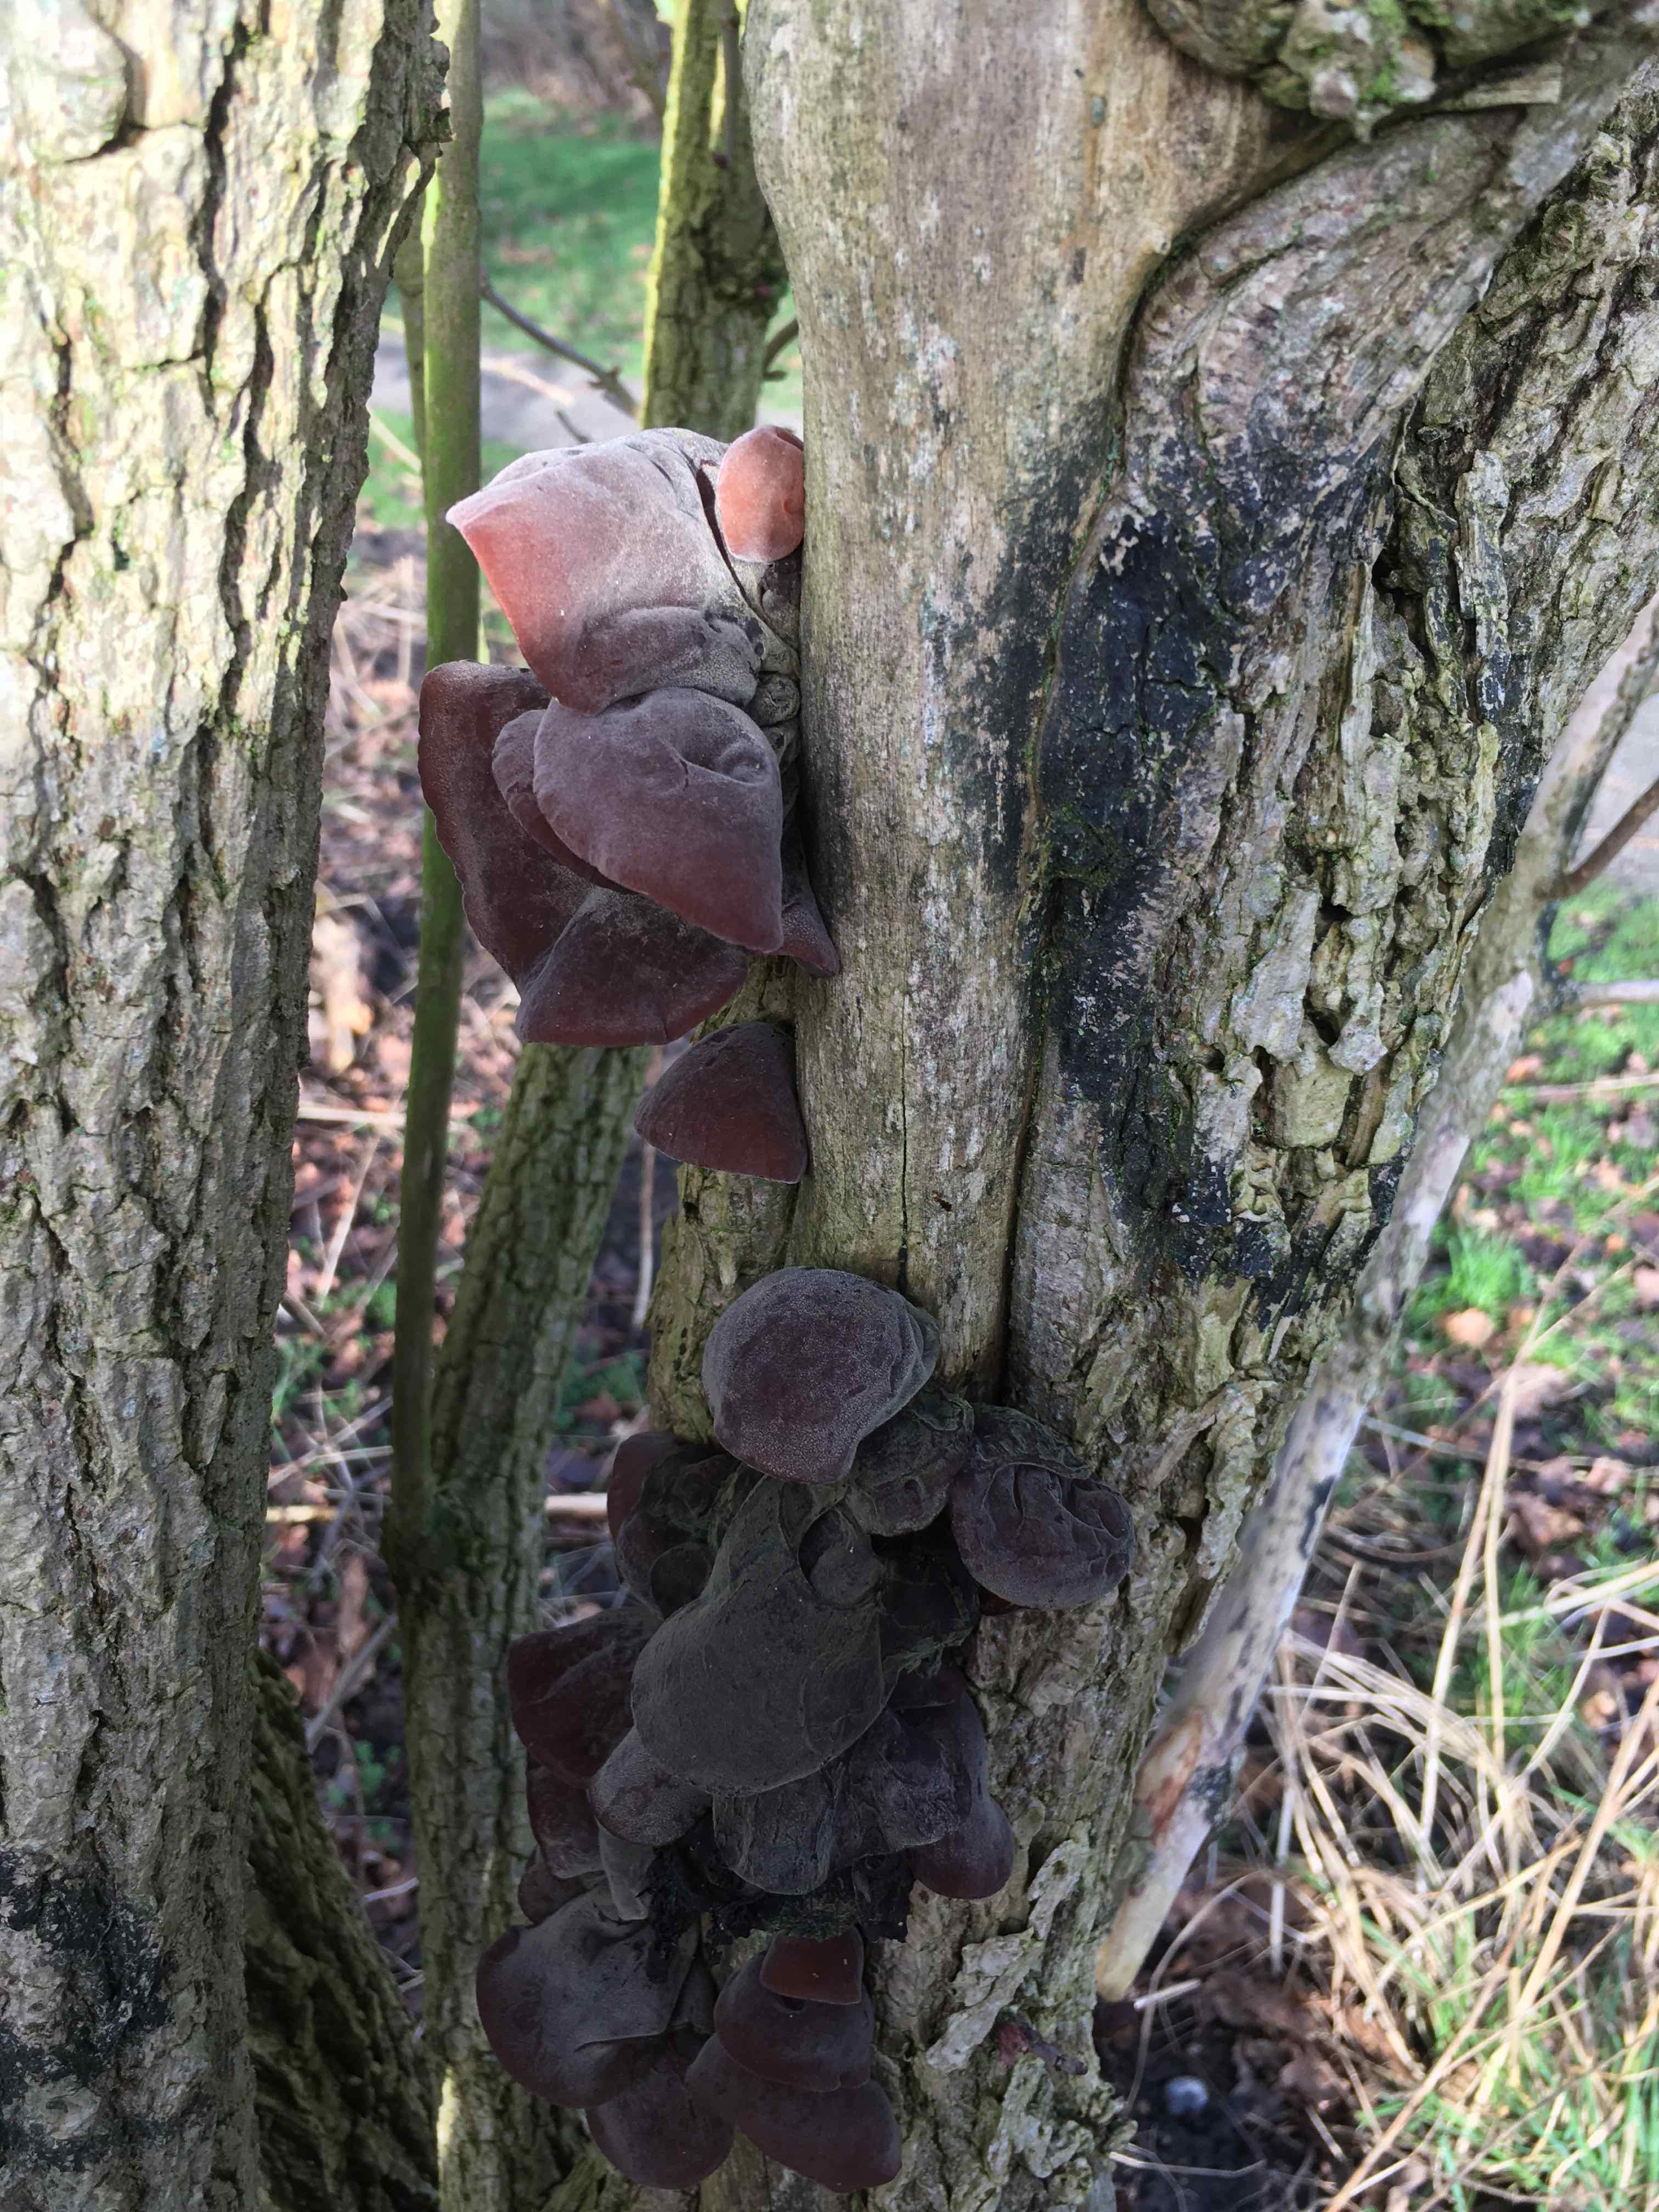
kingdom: Fungi
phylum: Basidiomycota
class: Agaricomycetes
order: Auriculariales
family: Auriculariaceae
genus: Auricularia
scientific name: Auricularia auricula-judae
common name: almindelig judasøre
